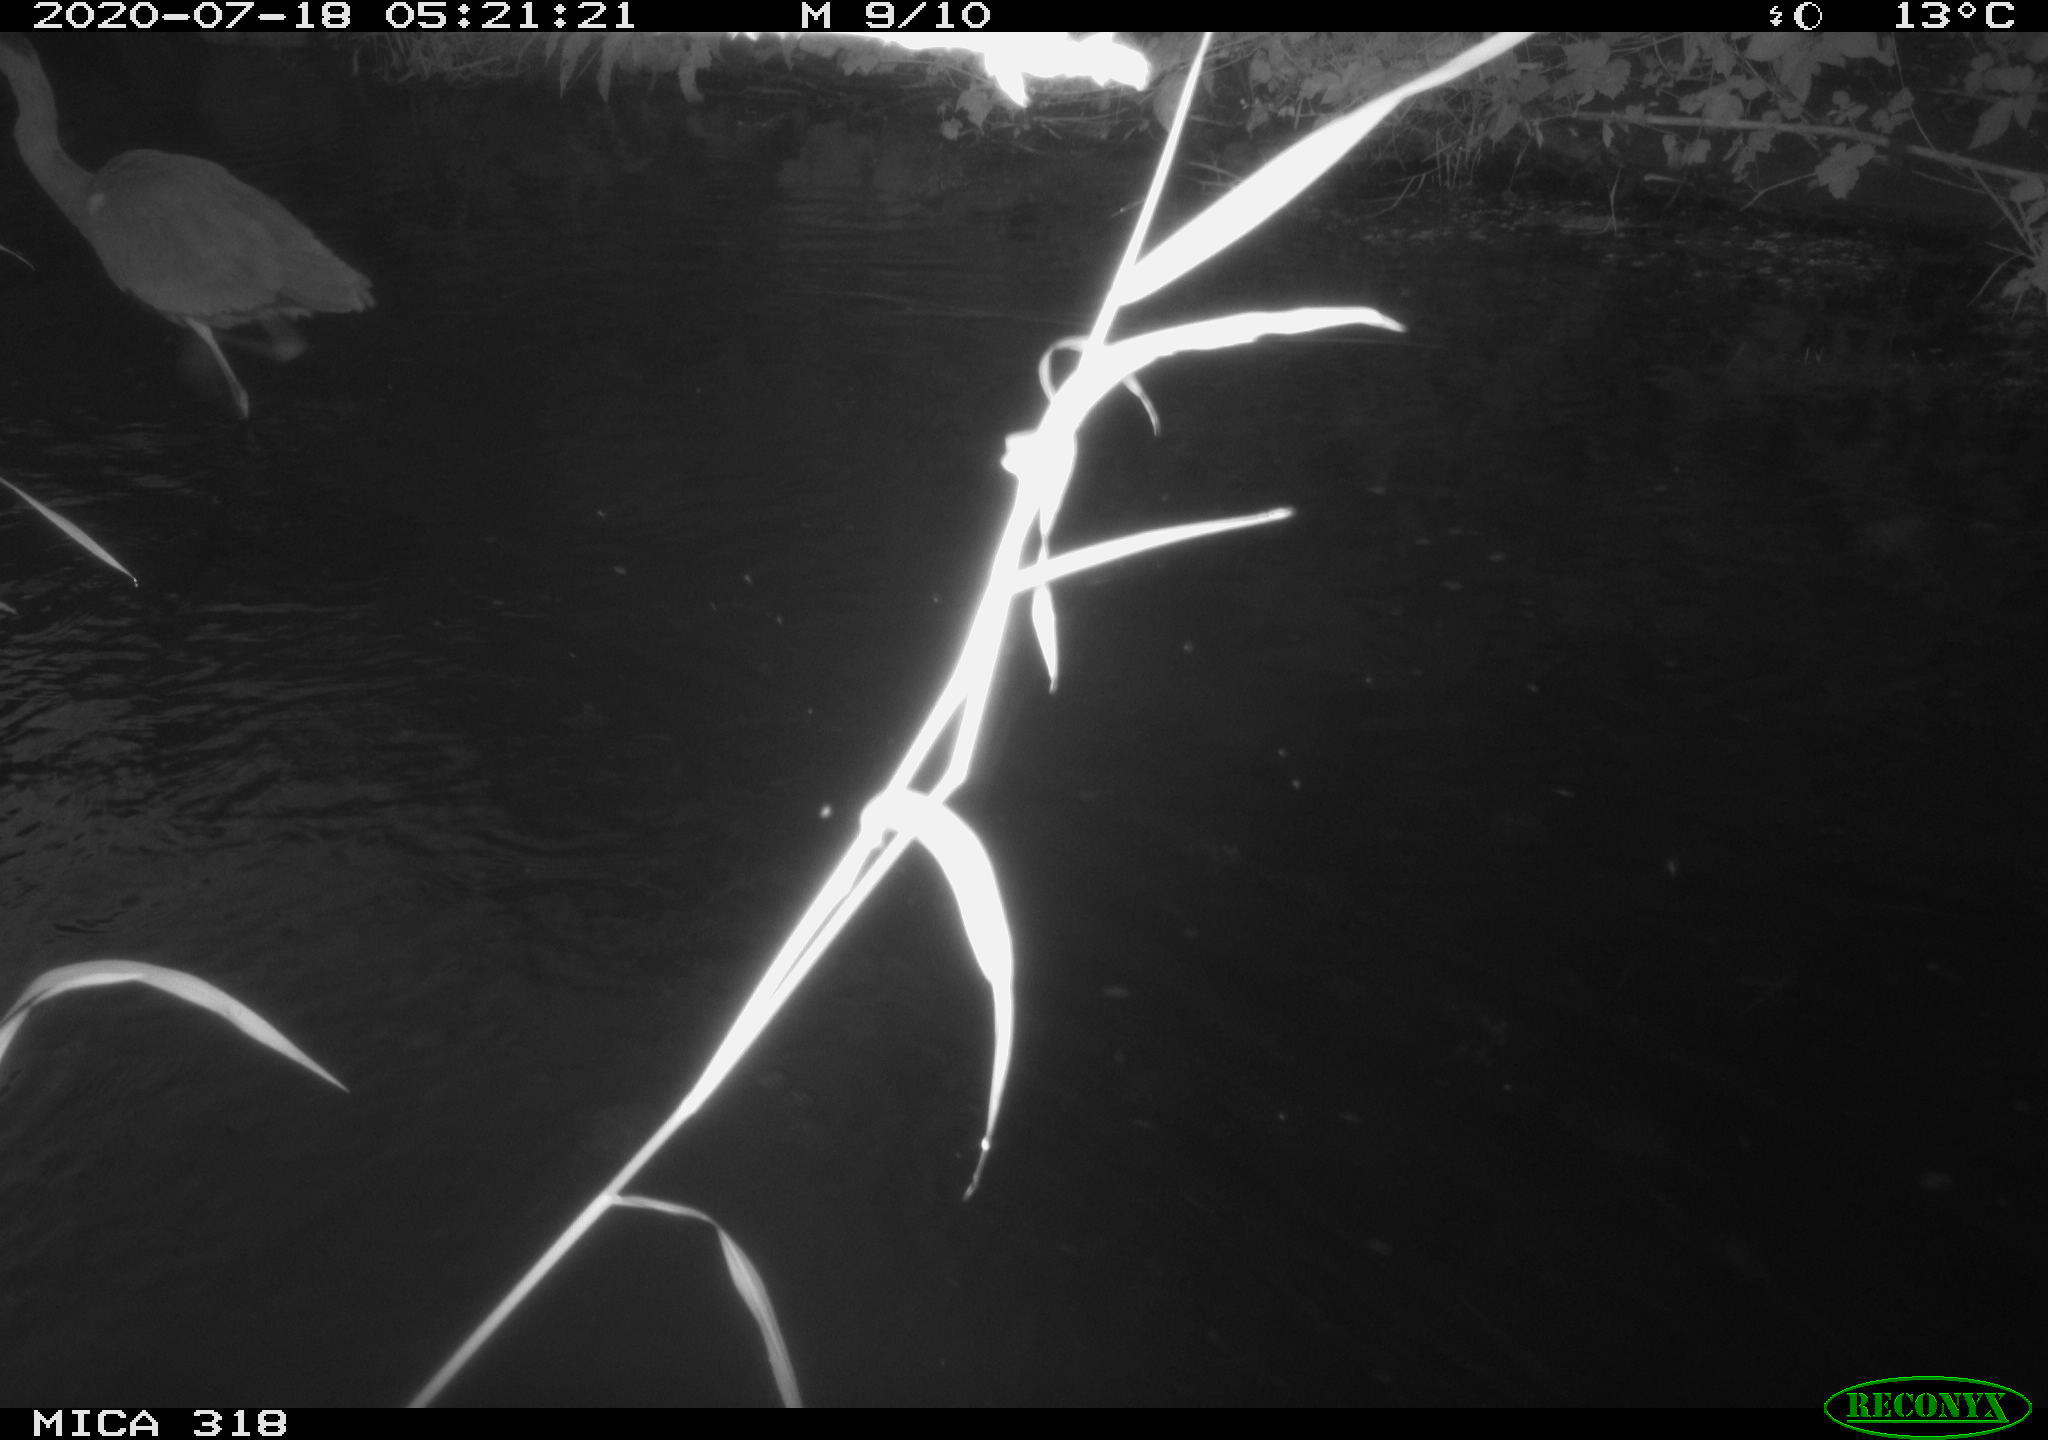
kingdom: Animalia
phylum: Chordata
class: Aves
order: Pelecaniformes
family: Ardeidae
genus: Ardea
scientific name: Ardea cinerea
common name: Grey heron
